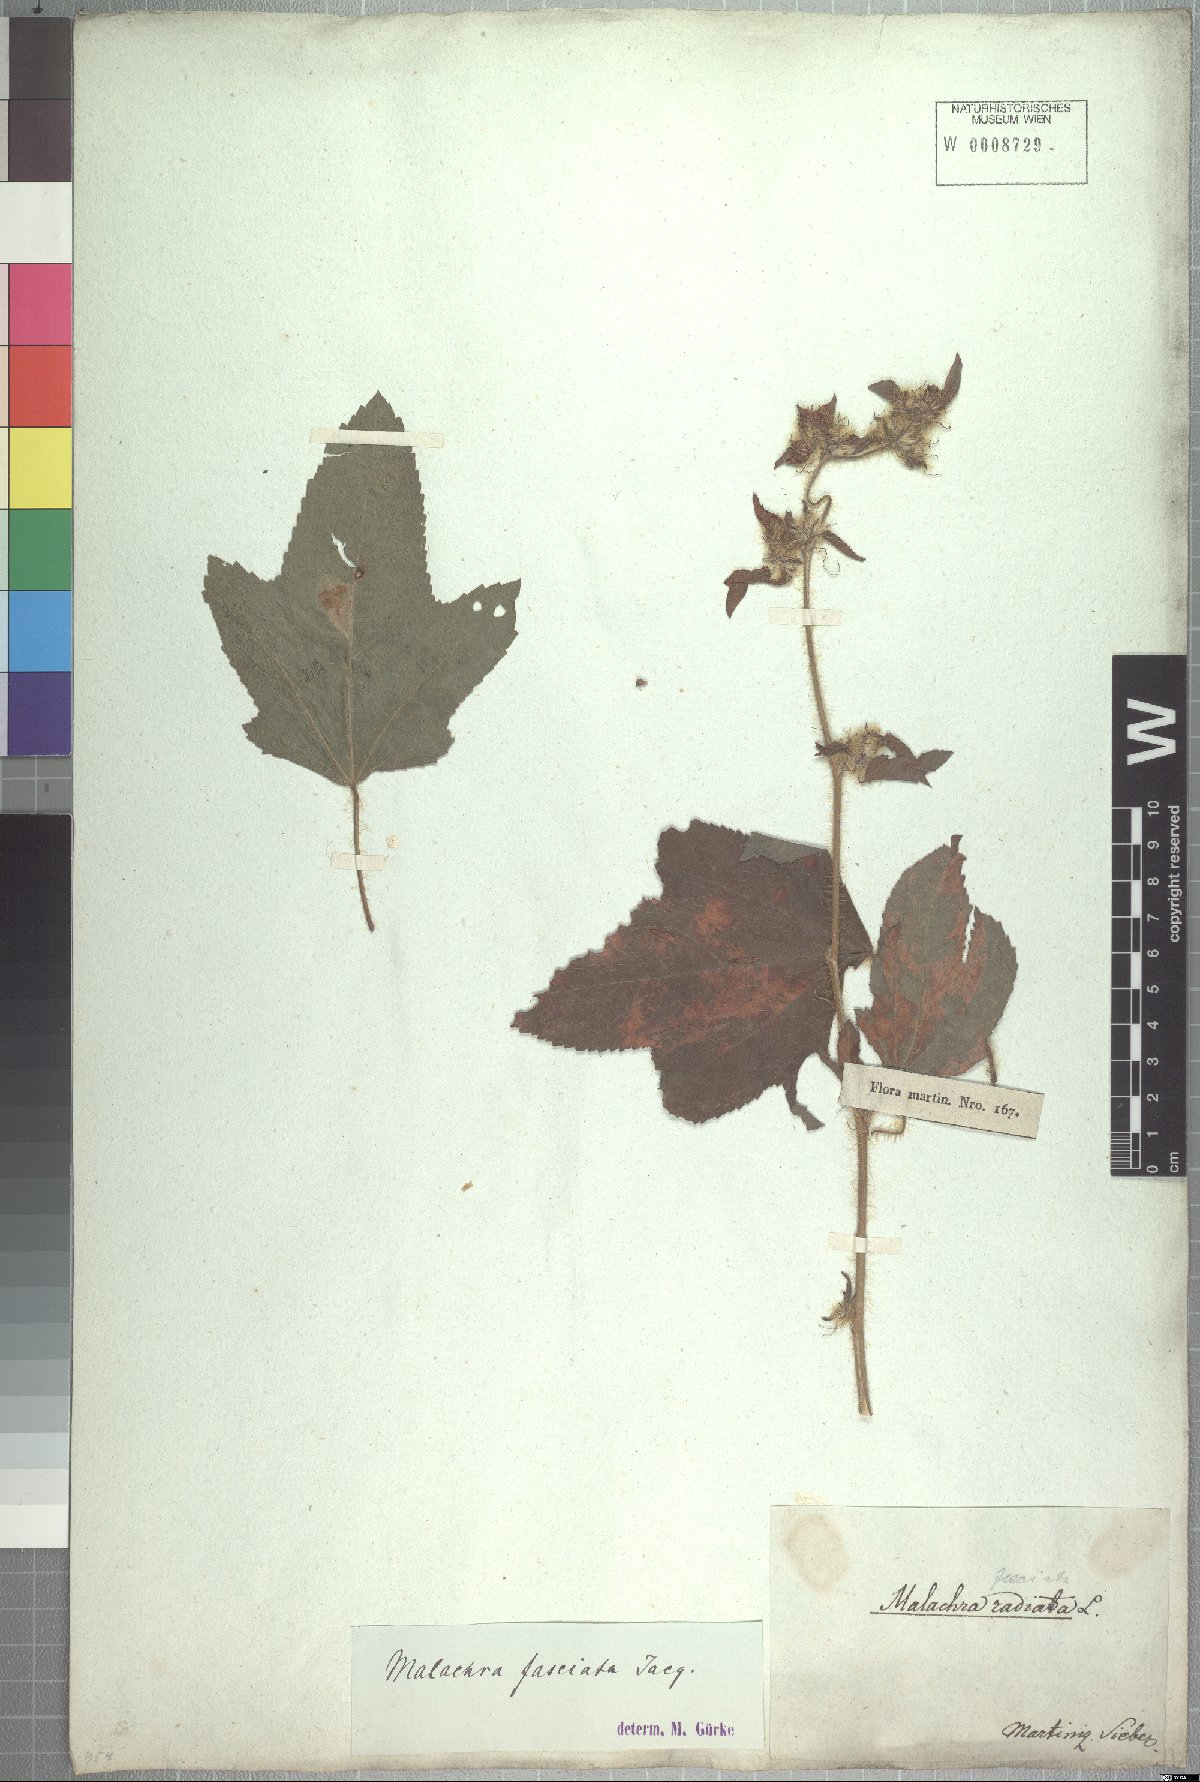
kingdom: Plantae
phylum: Tracheophyta
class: Magnoliopsida
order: Malvales
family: Malvaceae
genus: Malachra
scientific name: Malachra fasciata
